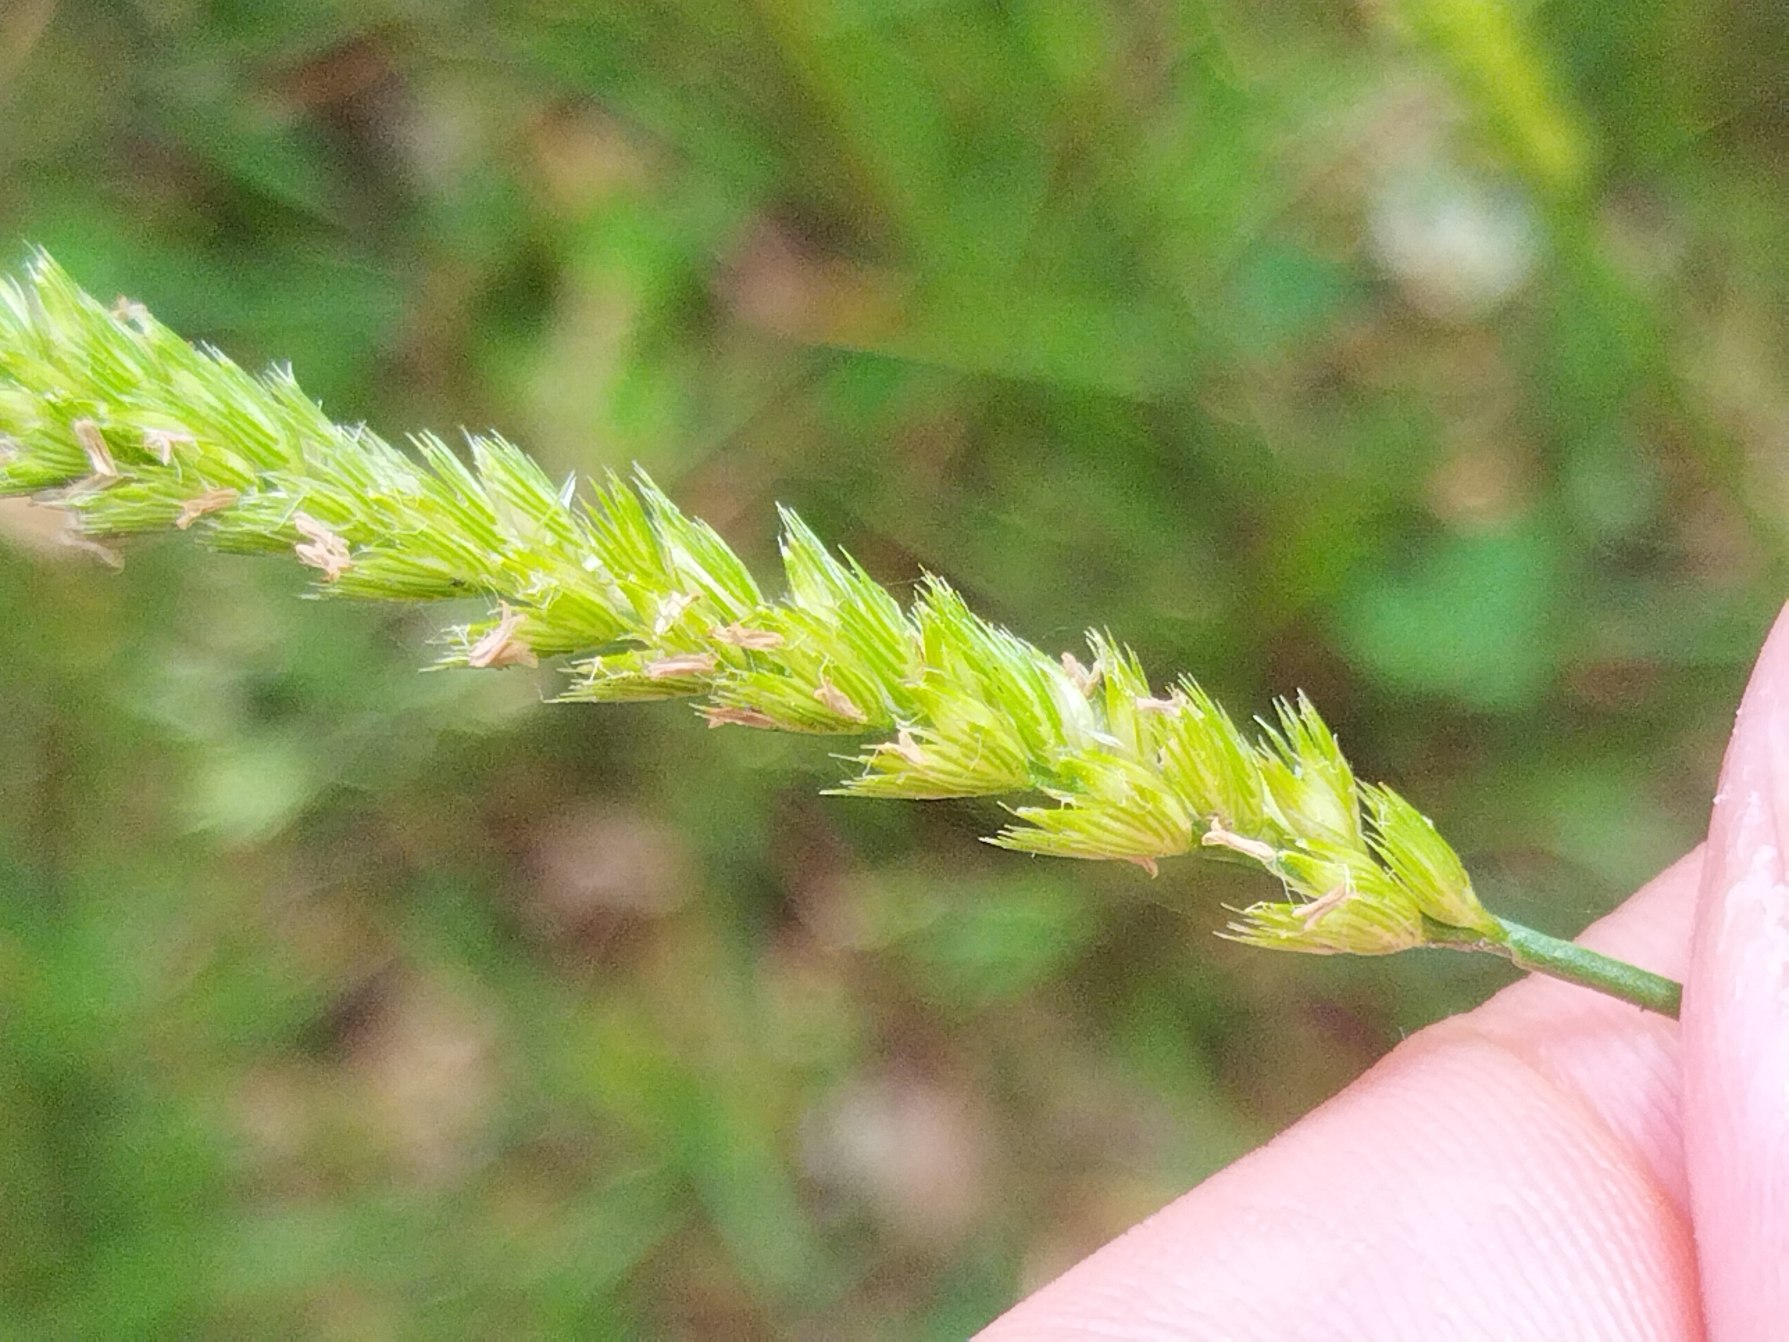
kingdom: Plantae
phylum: Tracheophyta
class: Liliopsida
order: Poales
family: Poaceae
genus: Cynosurus
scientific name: Cynosurus cristatus
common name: Kamgræs
